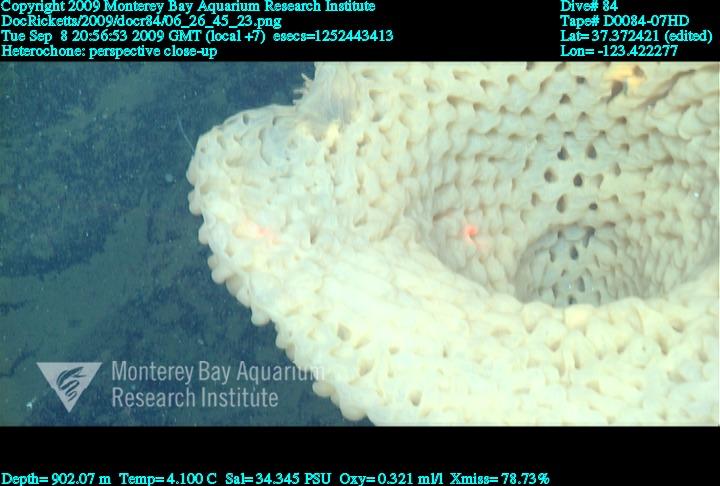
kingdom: Animalia
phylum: Porifera
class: Hexactinellida
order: Sceptrulophora
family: Aphrocallistidae
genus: Heterochone
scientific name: Heterochone
